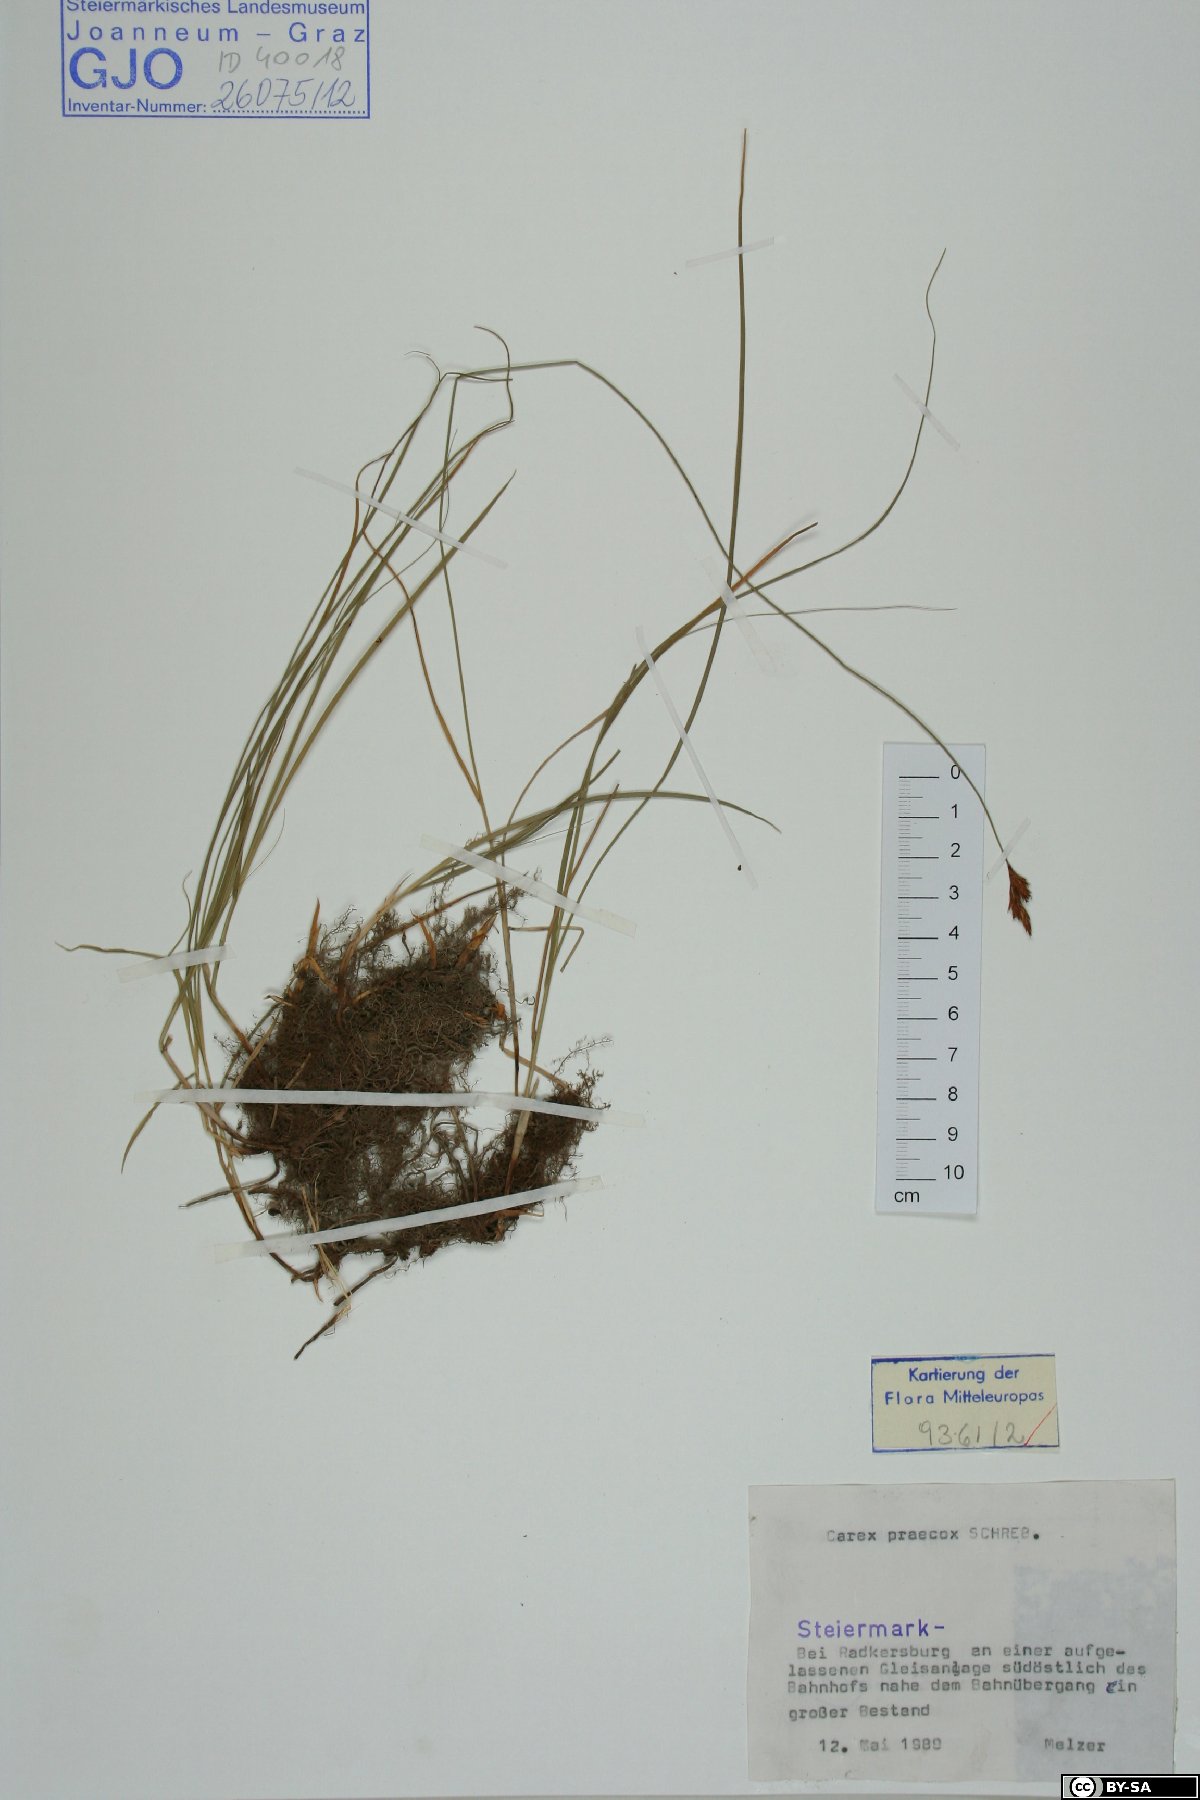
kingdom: Plantae
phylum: Tracheophyta
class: Liliopsida
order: Poales
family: Cyperaceae
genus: Carex
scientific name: Carex praecox
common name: Early sedge
